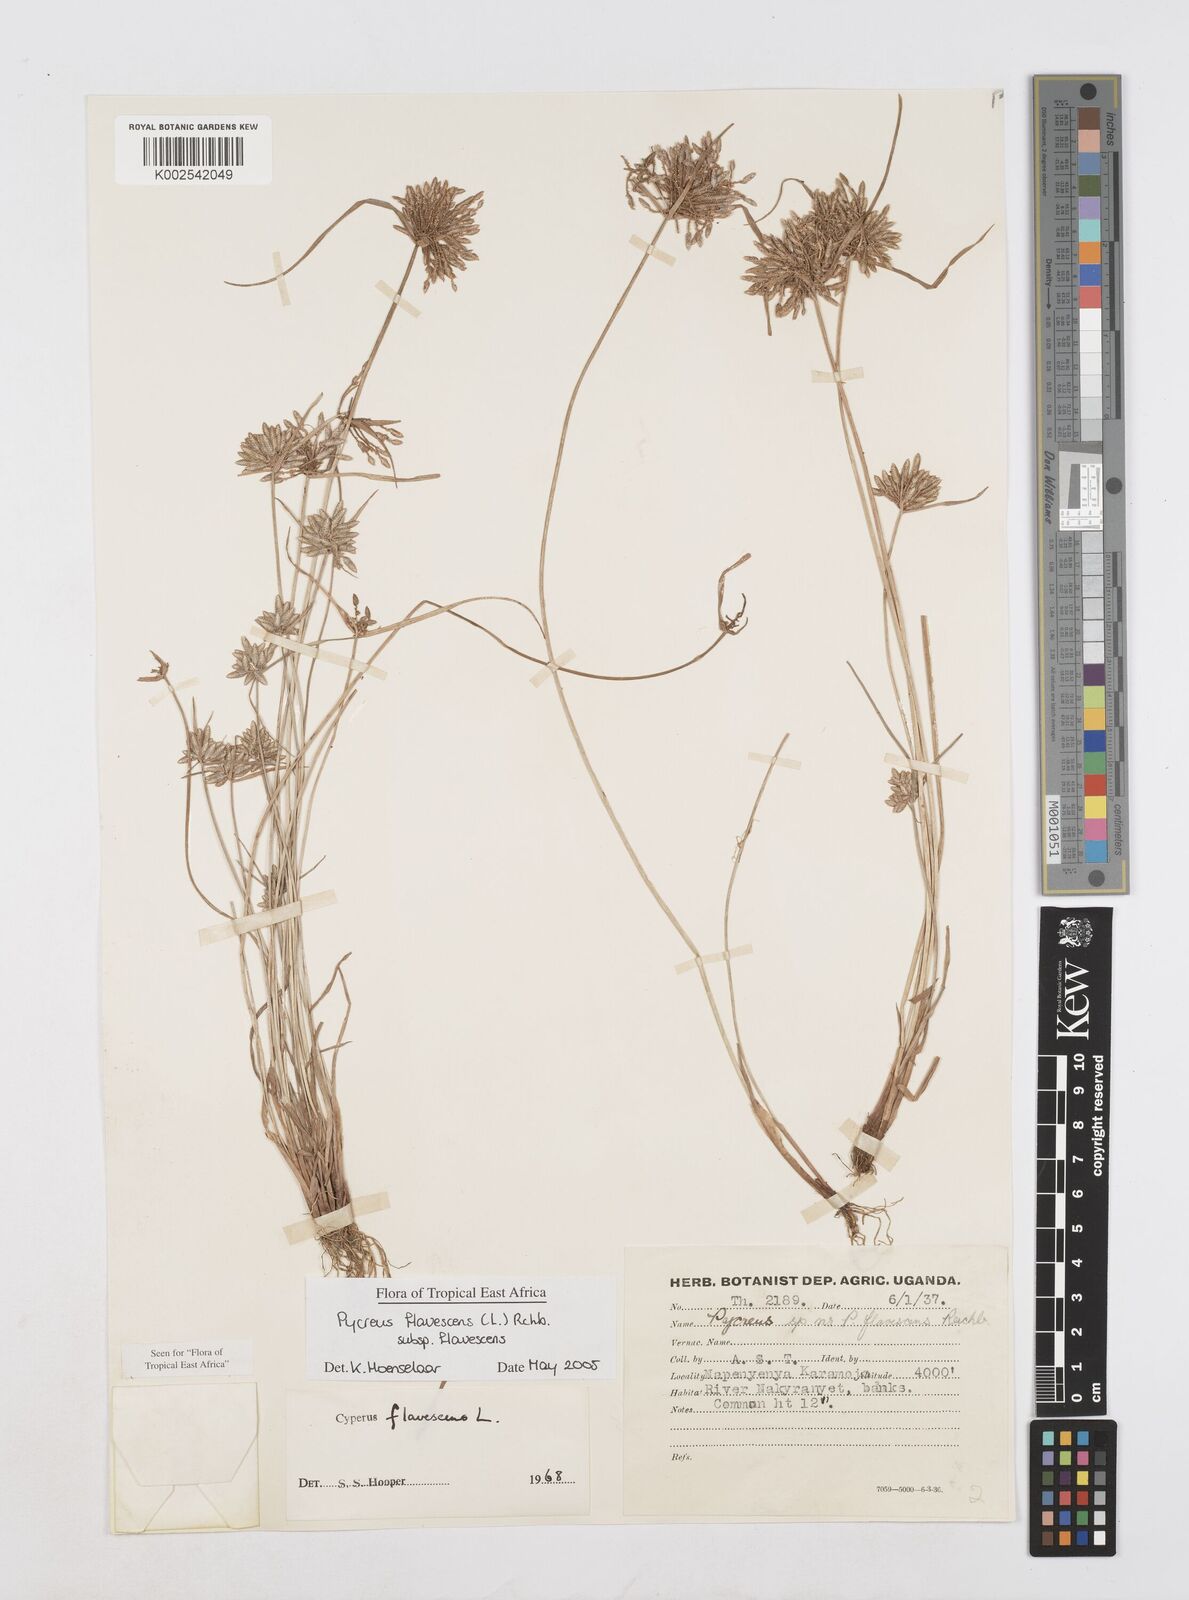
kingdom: Plantae
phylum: Tracheophyta
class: Liliopsida
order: Poales
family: Cyperaceae
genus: Cyperus
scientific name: Cyperus flavescens
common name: Yellow galingale
